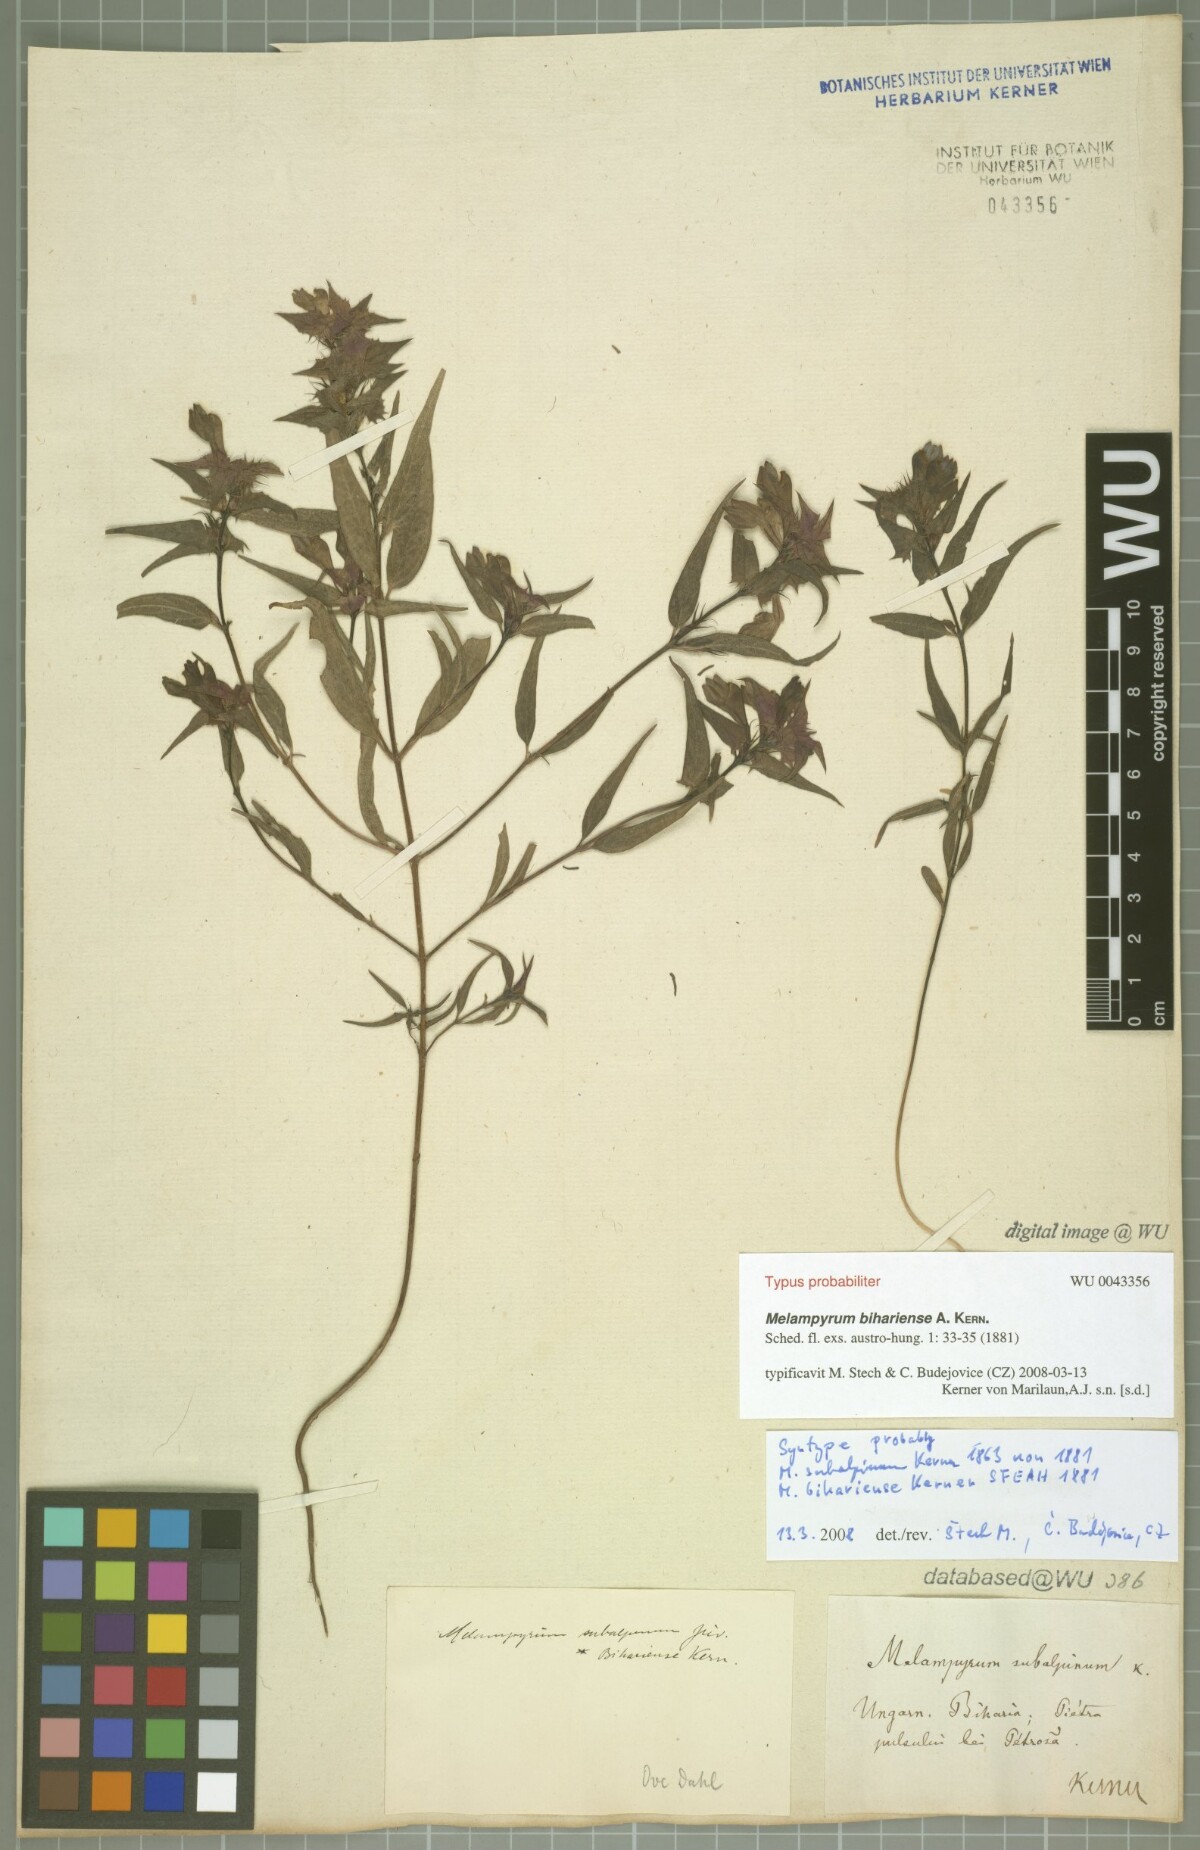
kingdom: Plantae
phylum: Tracheophyta
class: Magnoliopsida
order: Lamiales
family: Orobanchaceae
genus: Melampyrum
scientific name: Melampyrum bihariense
